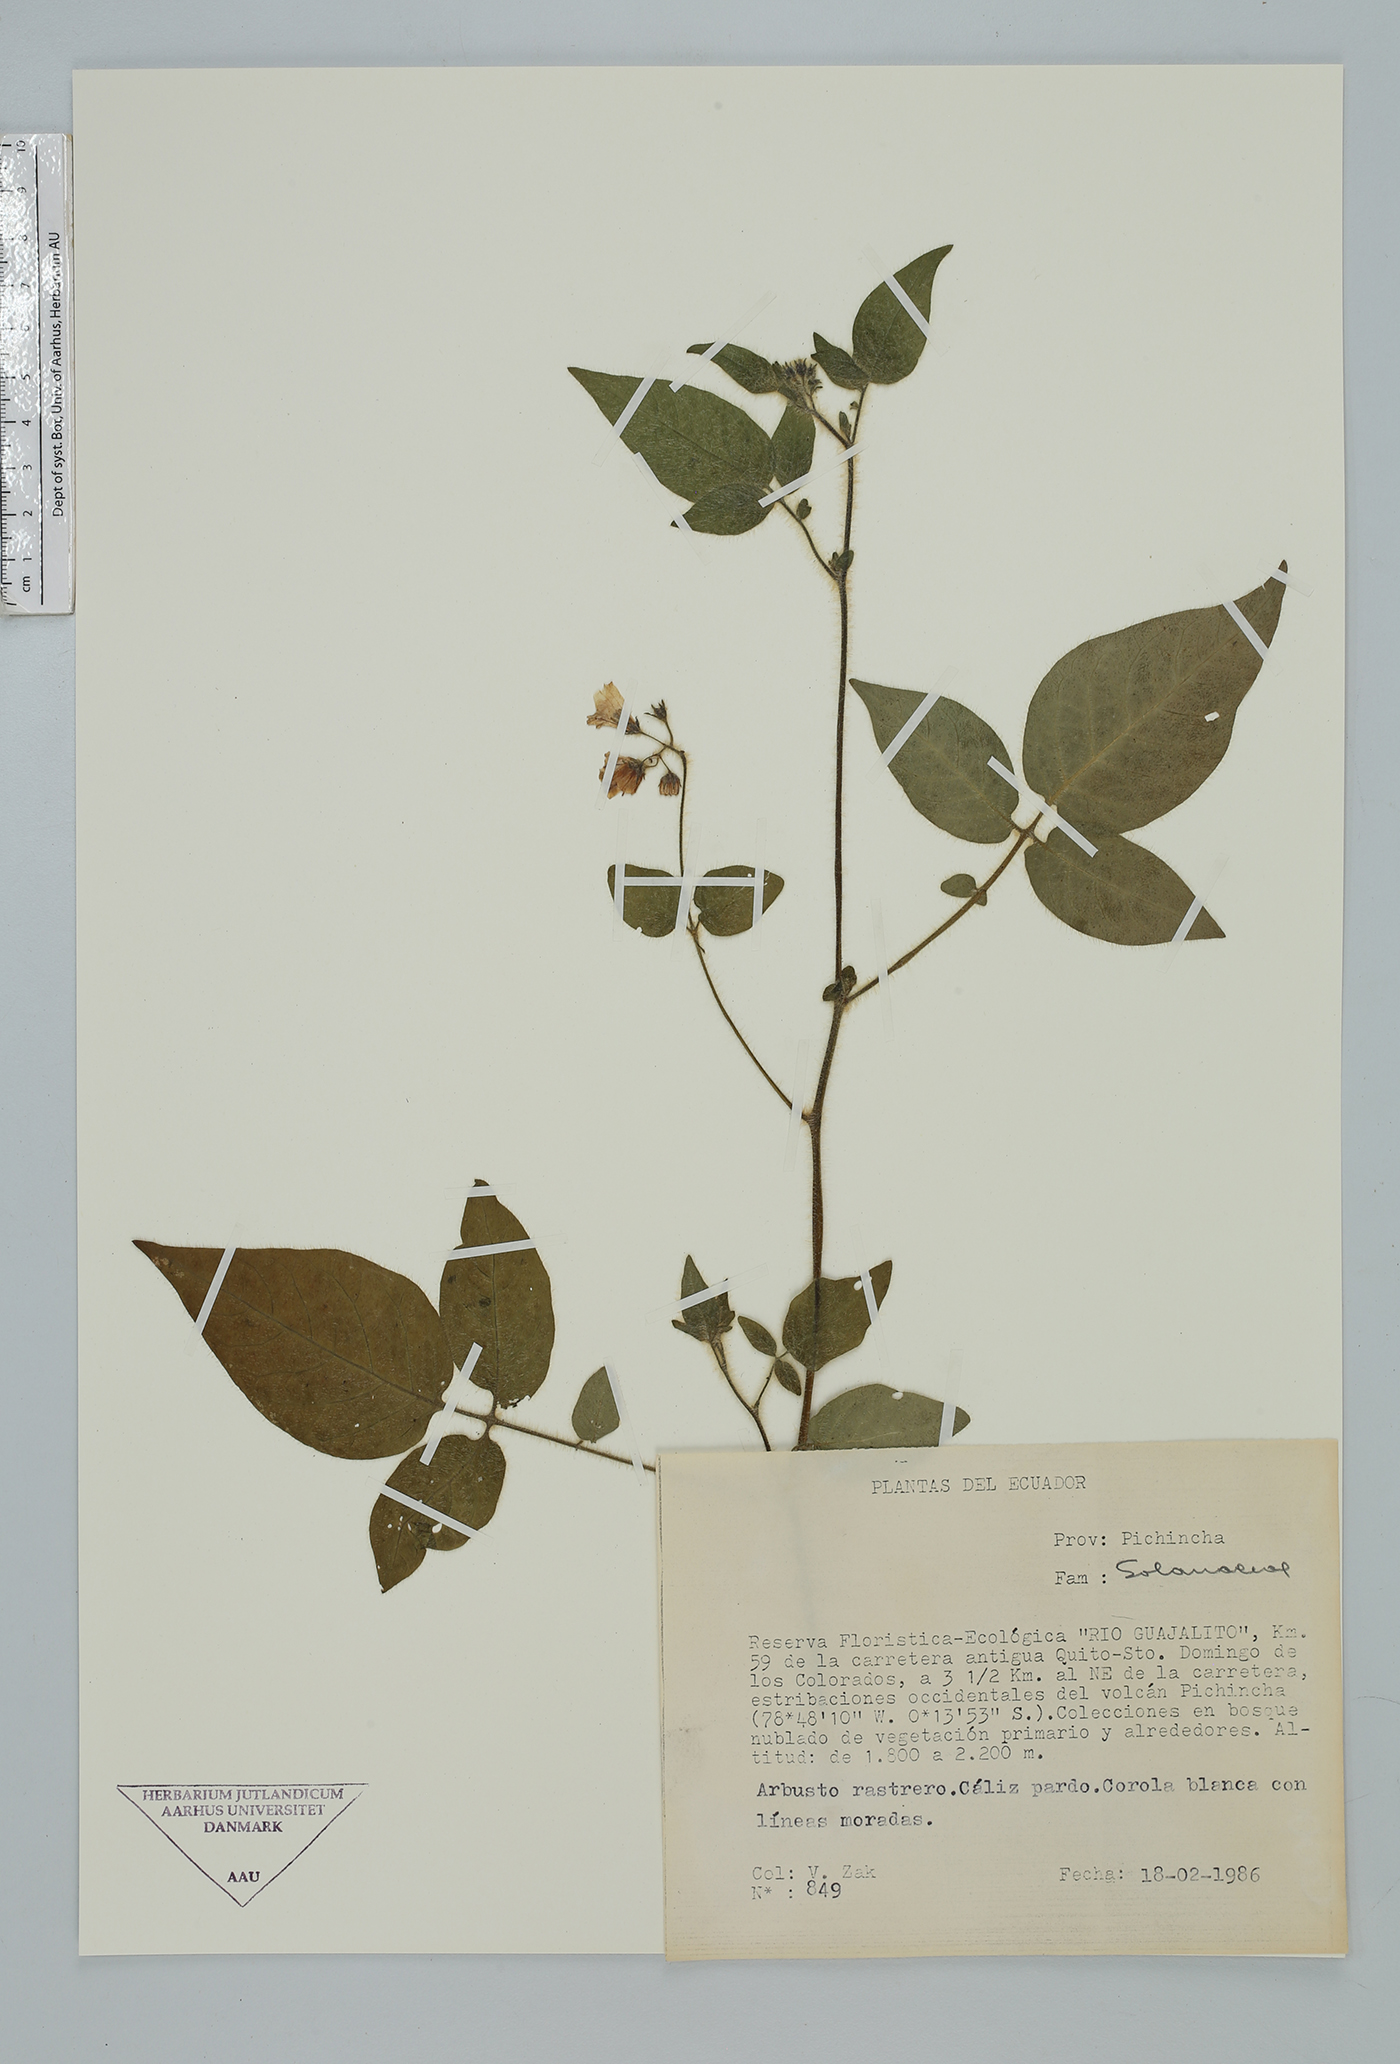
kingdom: Plantae
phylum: Tracheophyta
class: Magnoliopsida
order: Solanales
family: Solanaceae
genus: Solanum
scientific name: Solanum
